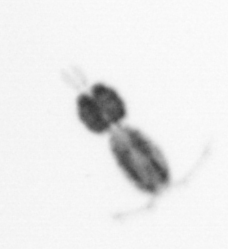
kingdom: Animalia
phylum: Arthropoda
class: Copepoda
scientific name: Copepoda
